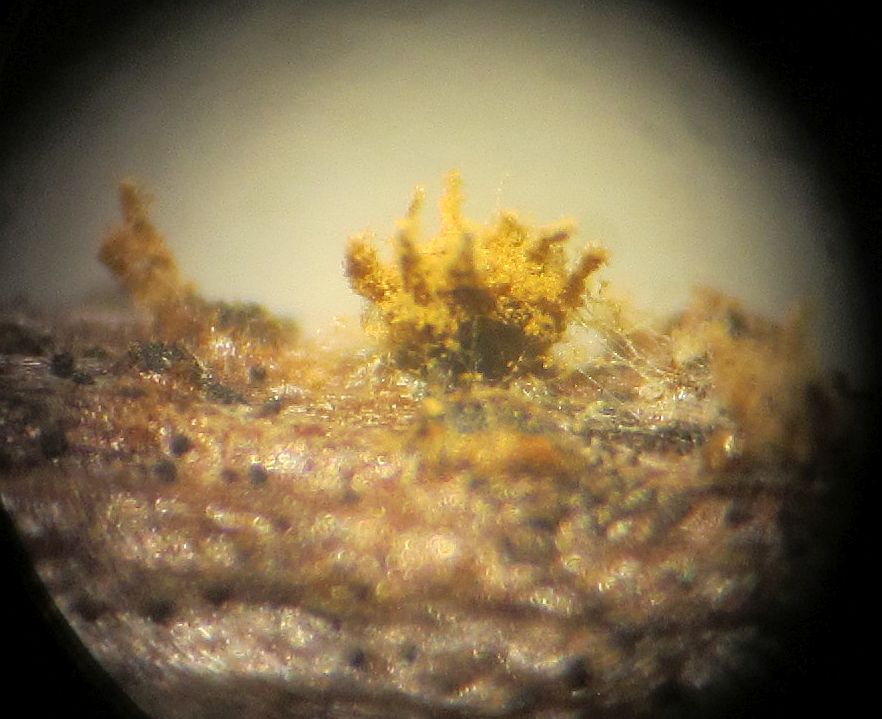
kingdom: Fungi
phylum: Ascomycota
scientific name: Ascomycota
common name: sæksvampe
